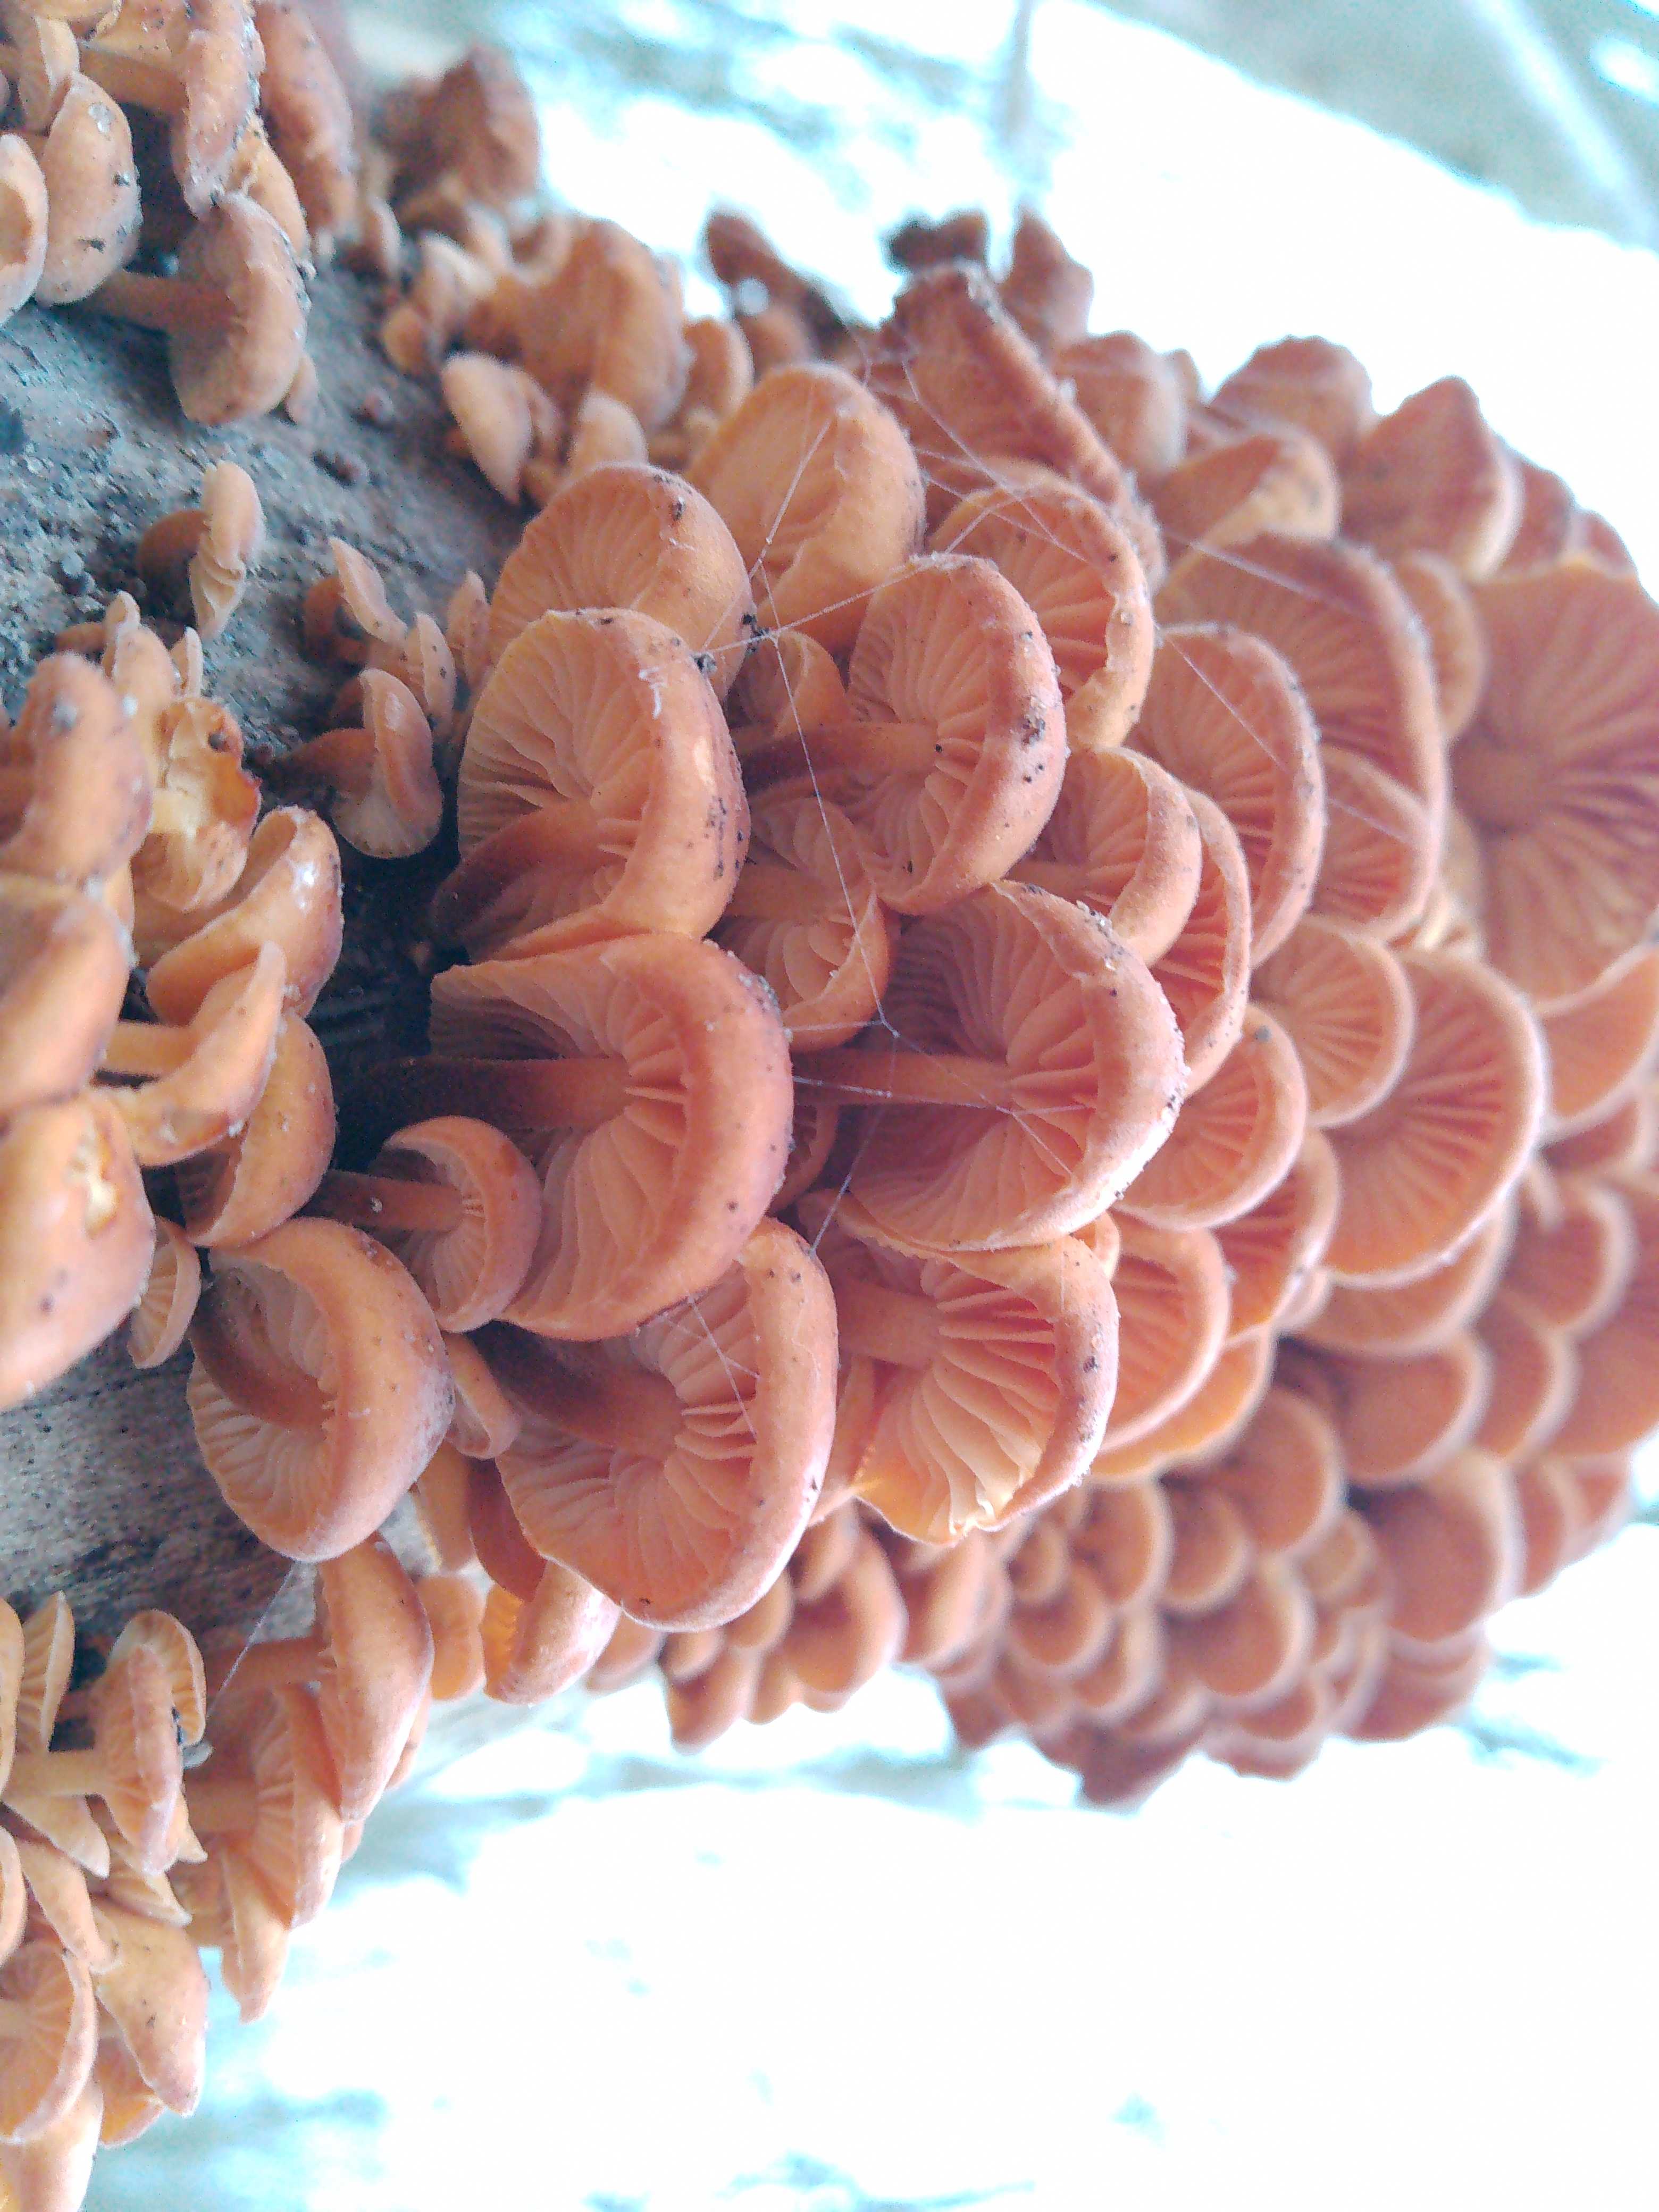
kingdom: Fungi
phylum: Basidiomycota
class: Agaricomycetes
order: Agaricales
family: Physalacriaceae
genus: Flammulina
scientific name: Flammulina velutipes
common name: gul fløjlsfod
